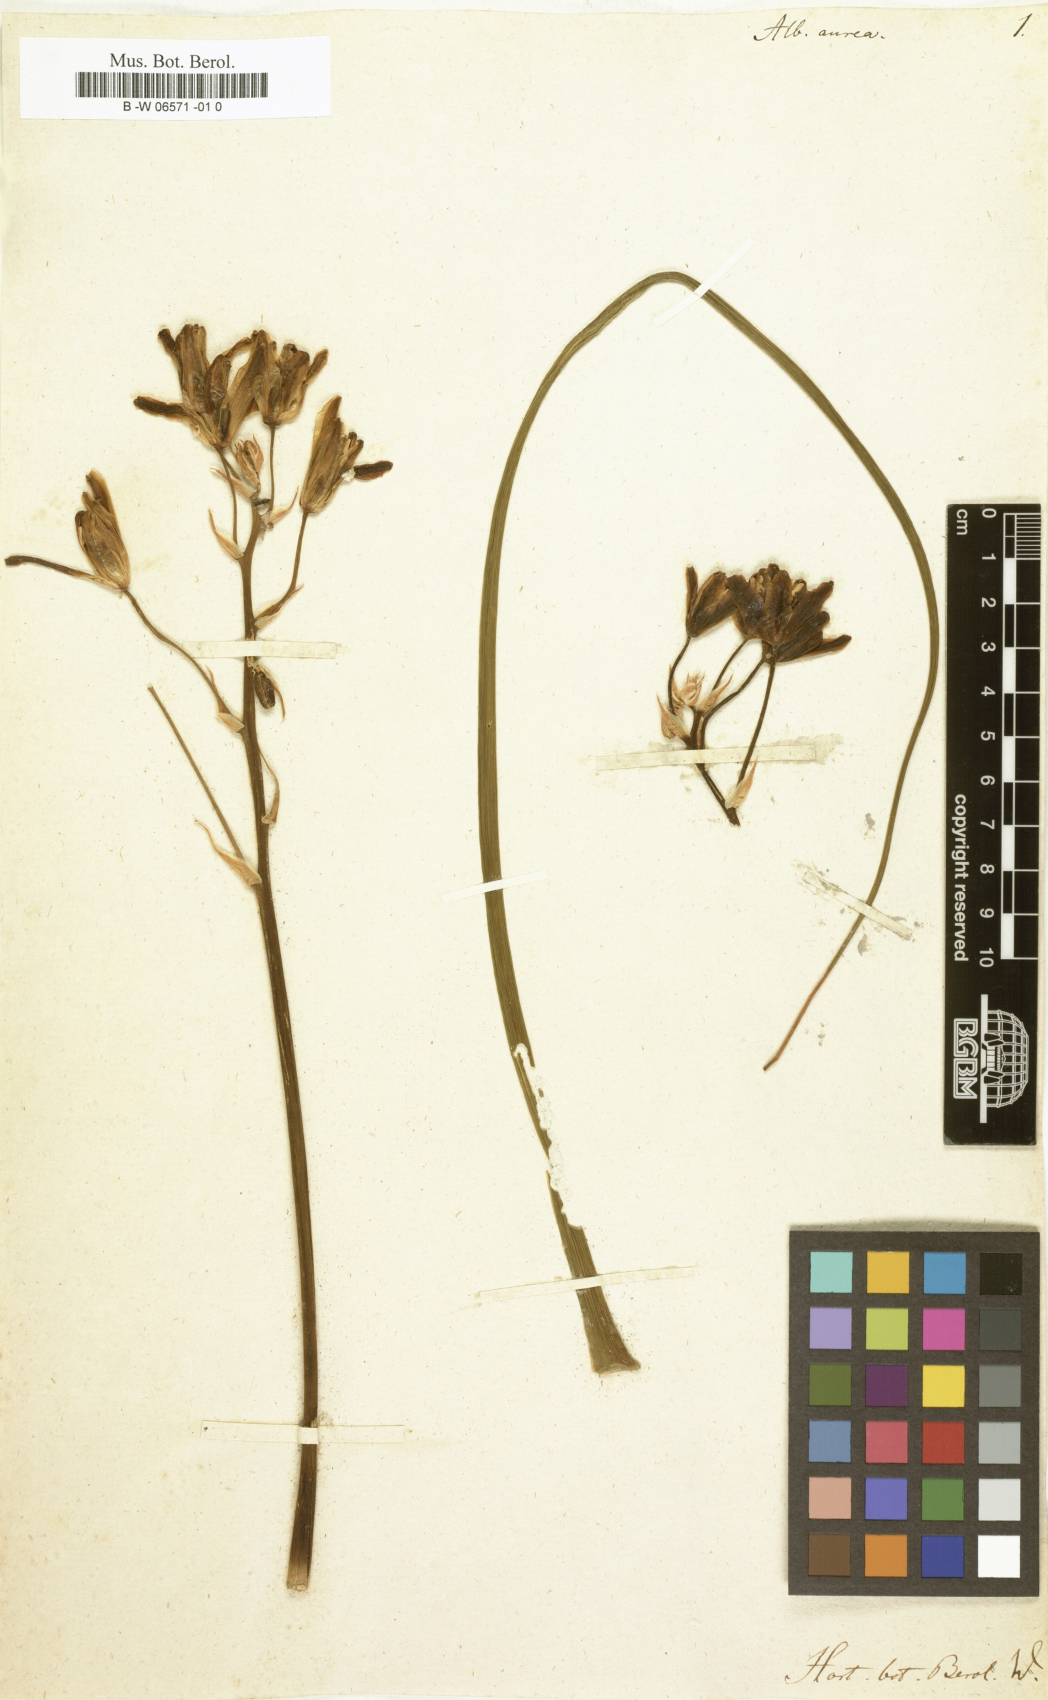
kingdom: Plantae
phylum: Tracheophyta
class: Liliopsida
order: Asparagales
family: Asparagaceae
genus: Albuca
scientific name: Albuca aurea
